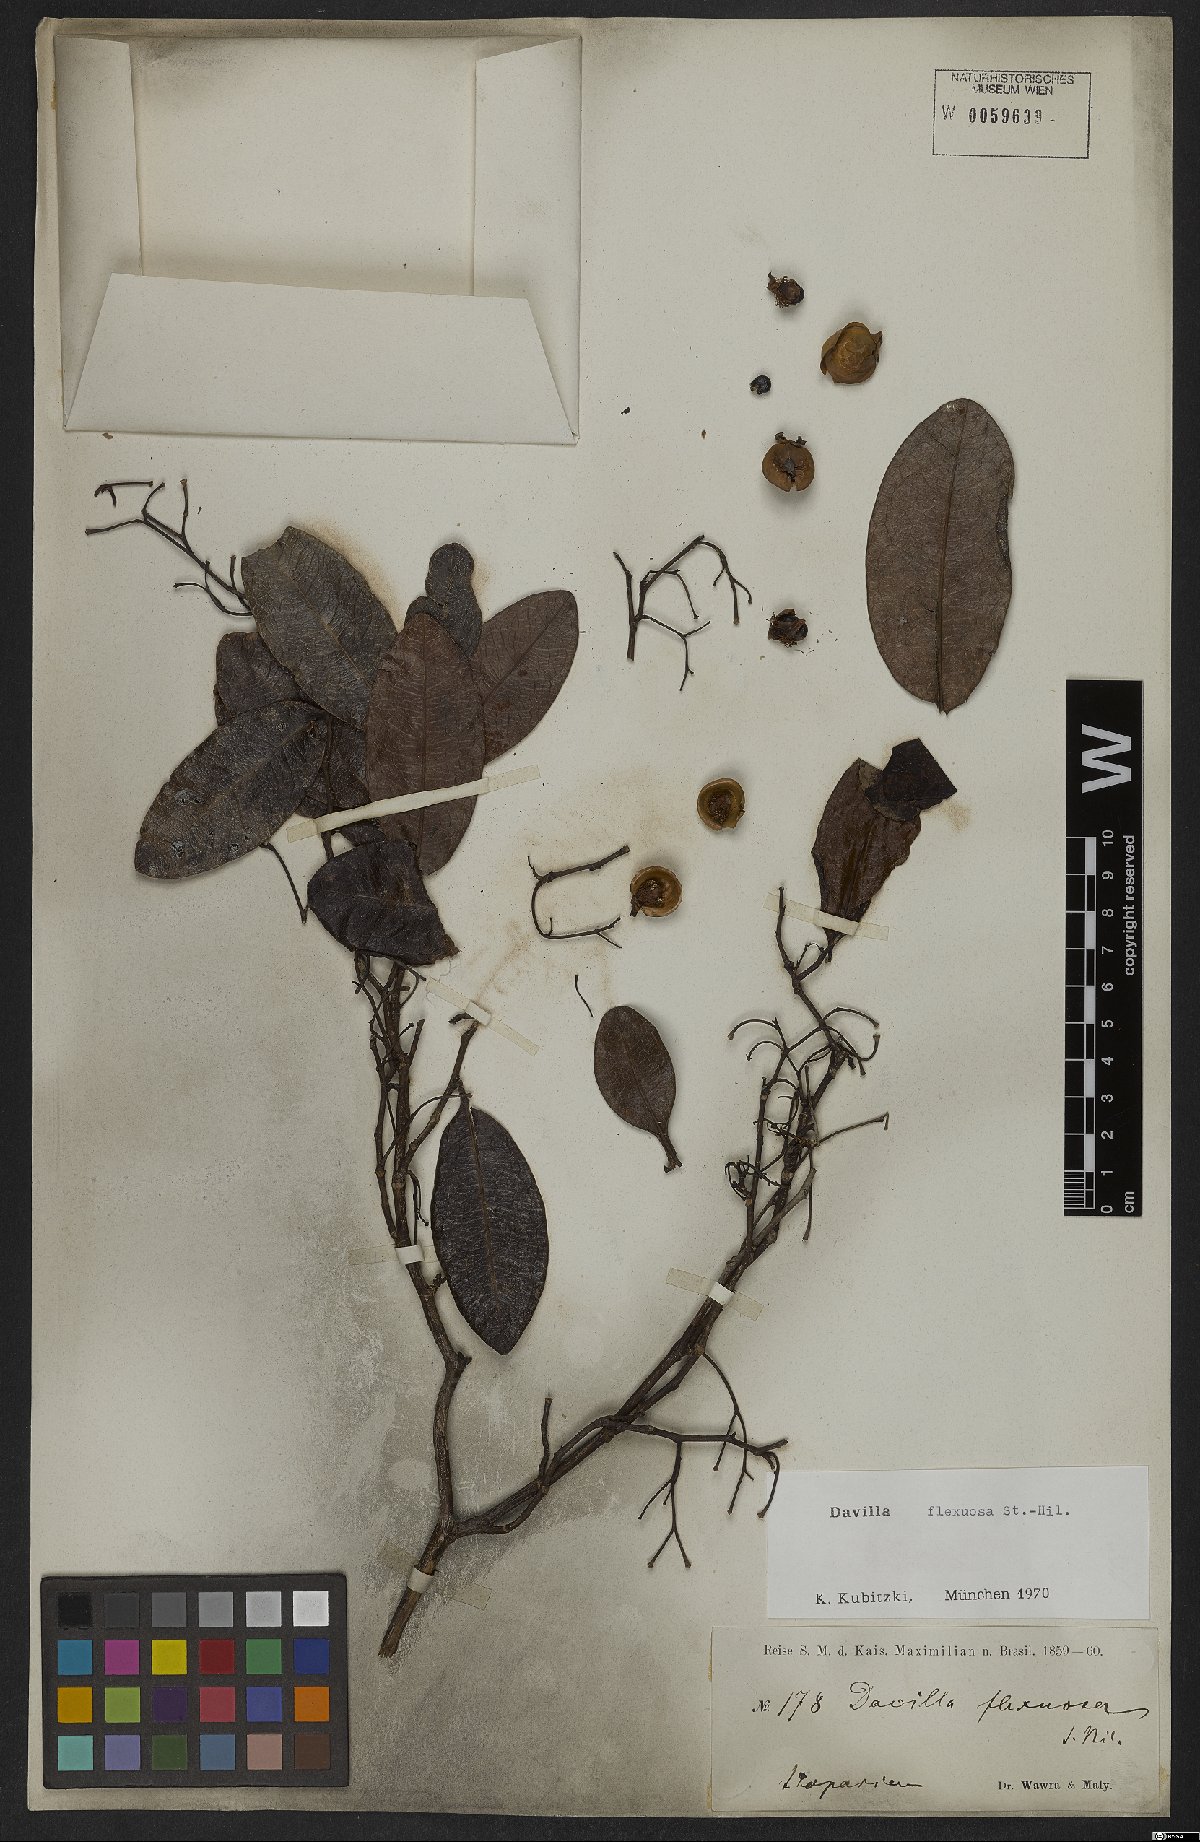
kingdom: Plantae
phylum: Tracheophyta
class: Magnoliopsida
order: Dilleniales
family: Dilleniaceae
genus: Davilla
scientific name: Davilla flexuosa
